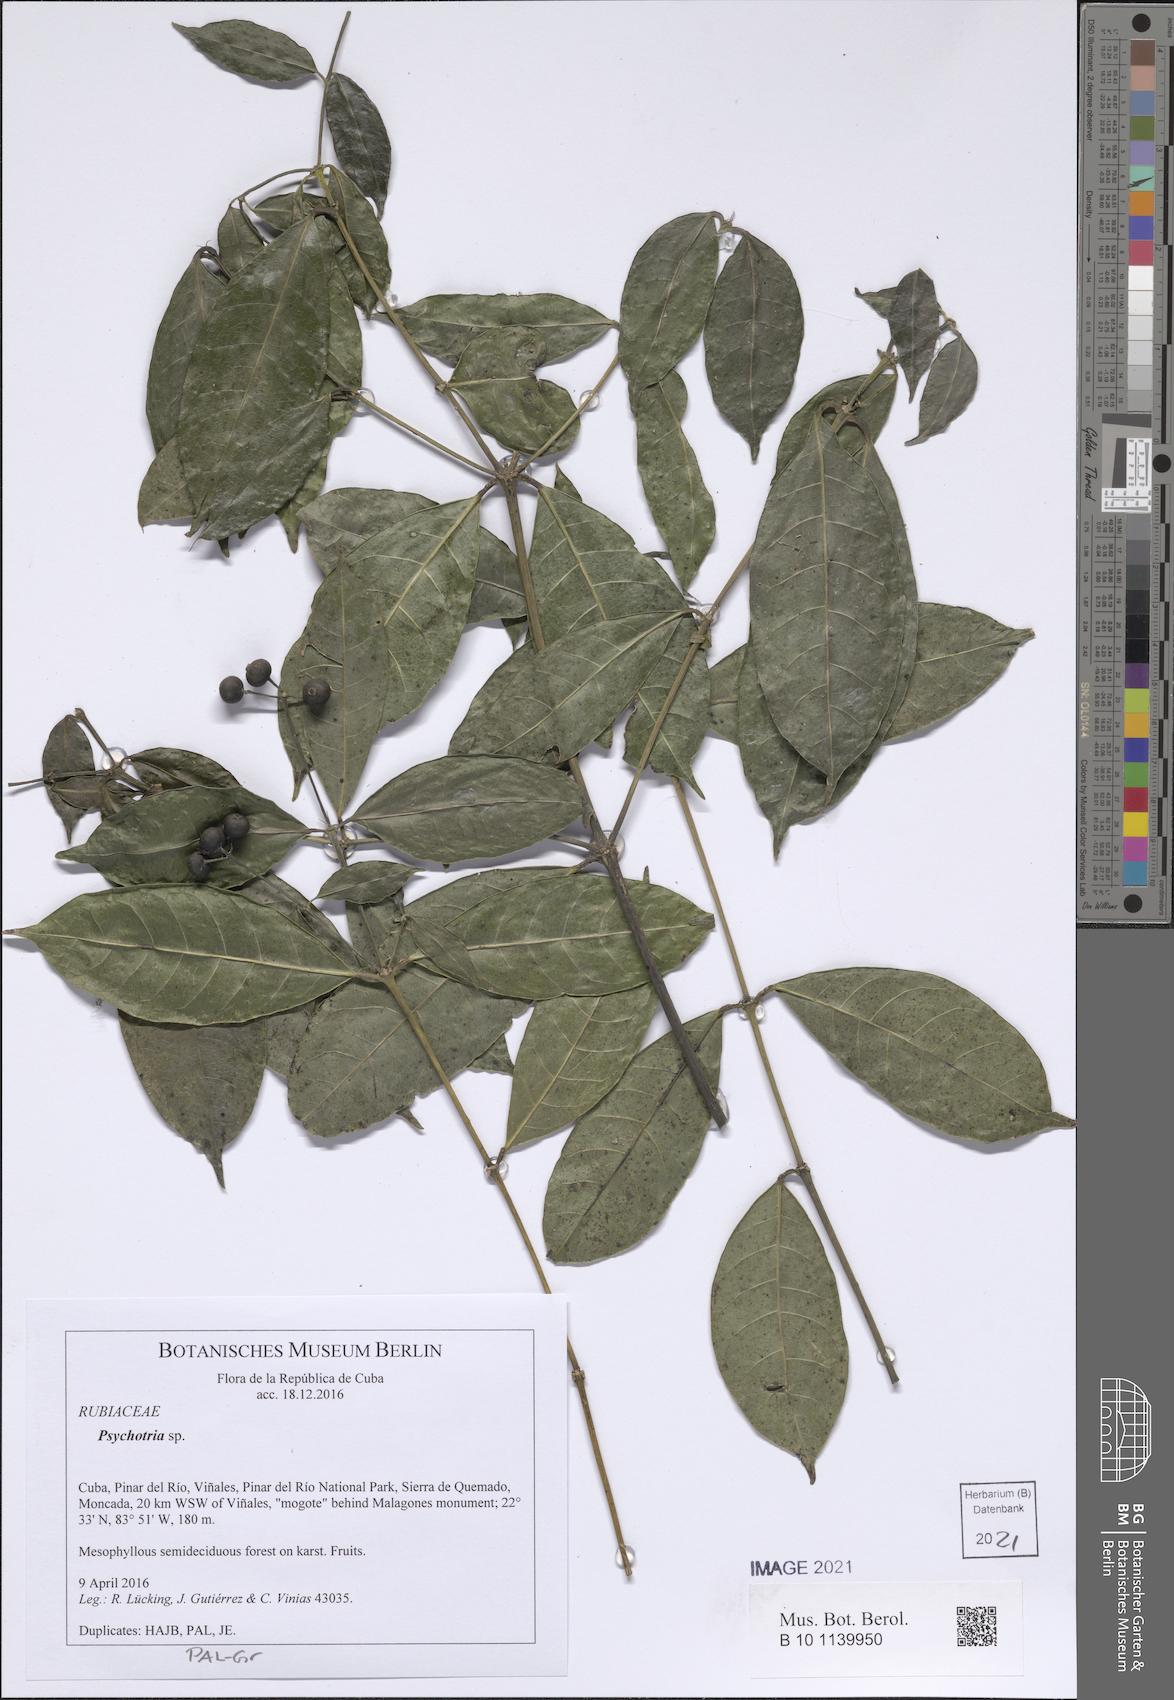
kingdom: Plantae
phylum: Tracheophyta
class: Magnoliopsida
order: Gentianales
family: Rubiaceae
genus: Psychotria
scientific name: Psychotria
